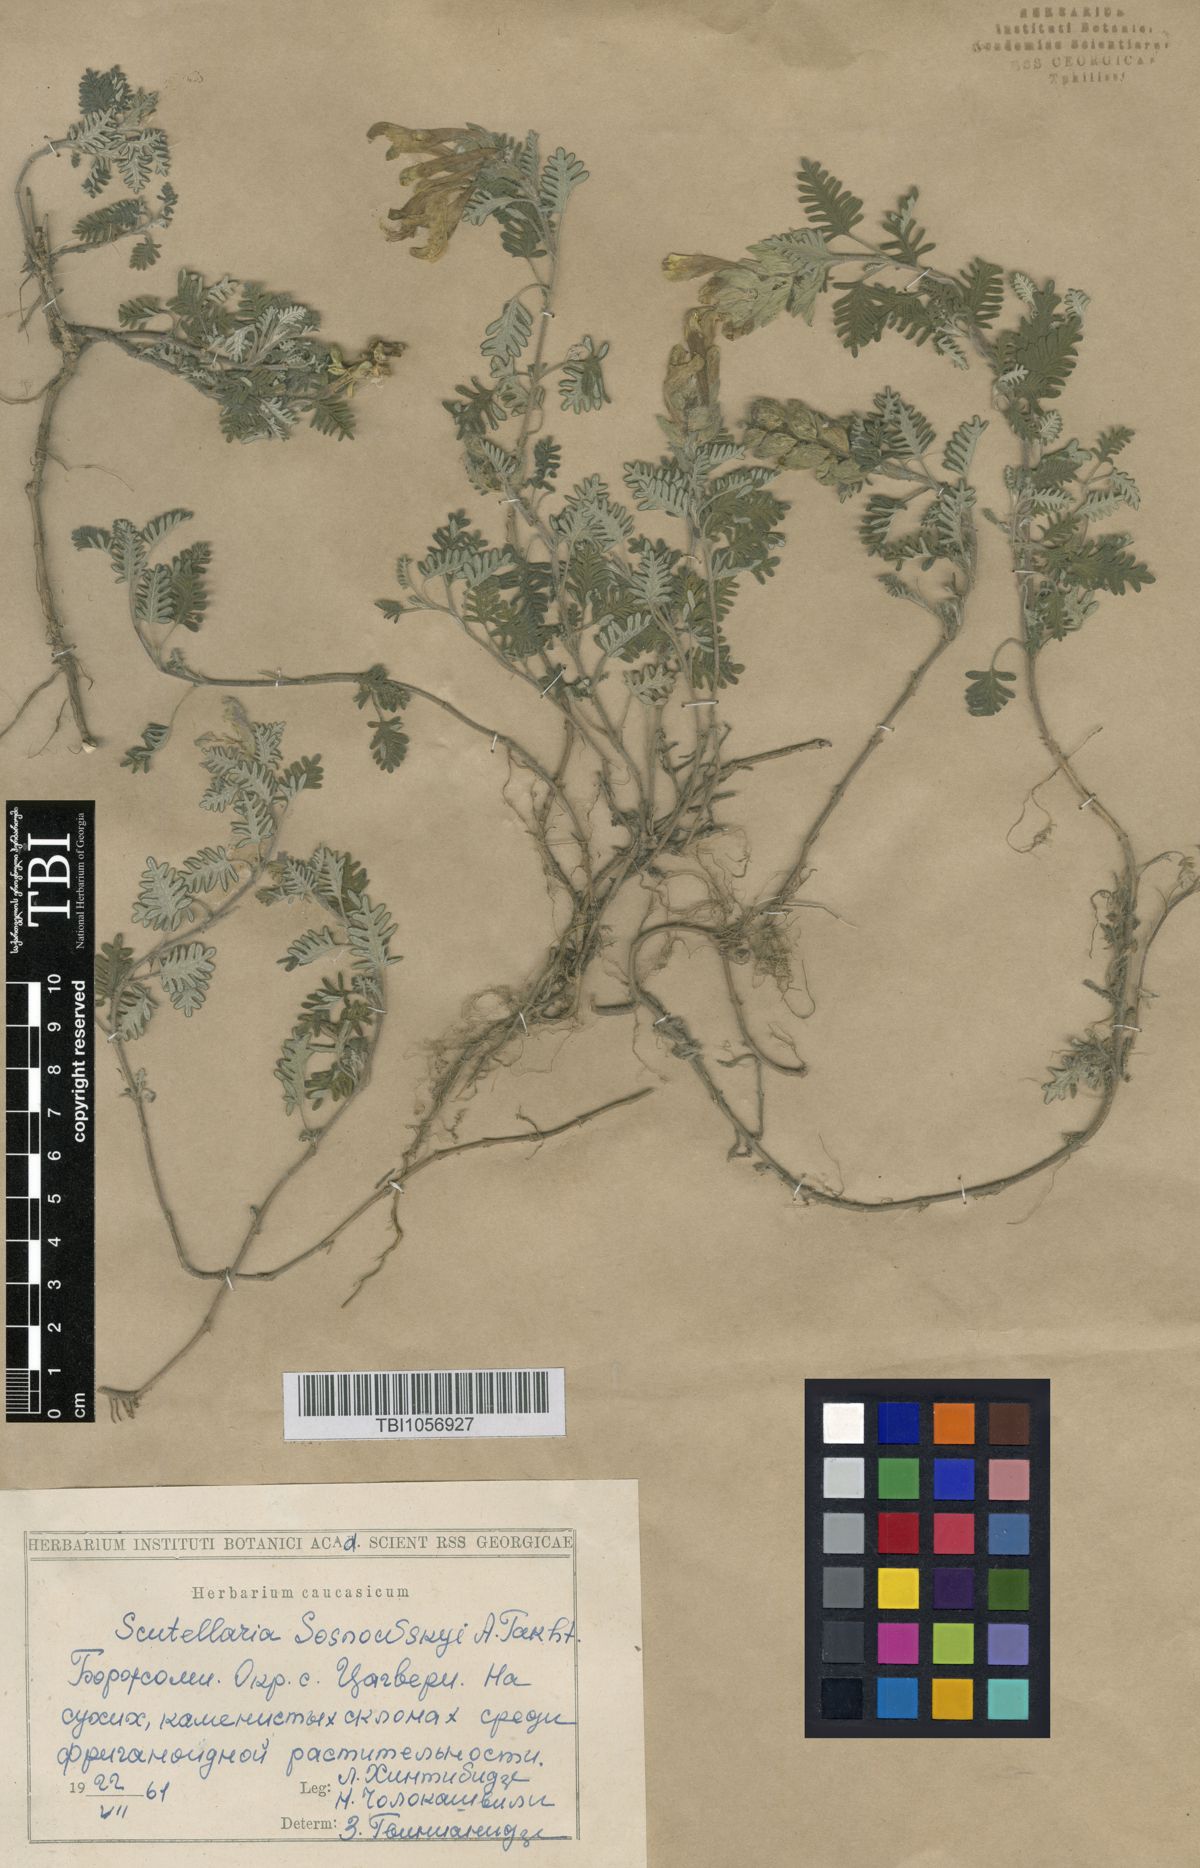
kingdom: Plantae
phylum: Tracheophyta
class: Magnoliopsida
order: Lamiales
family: Lamiaceae
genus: Scutellaria
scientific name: Scutellaria sosnowskyi
